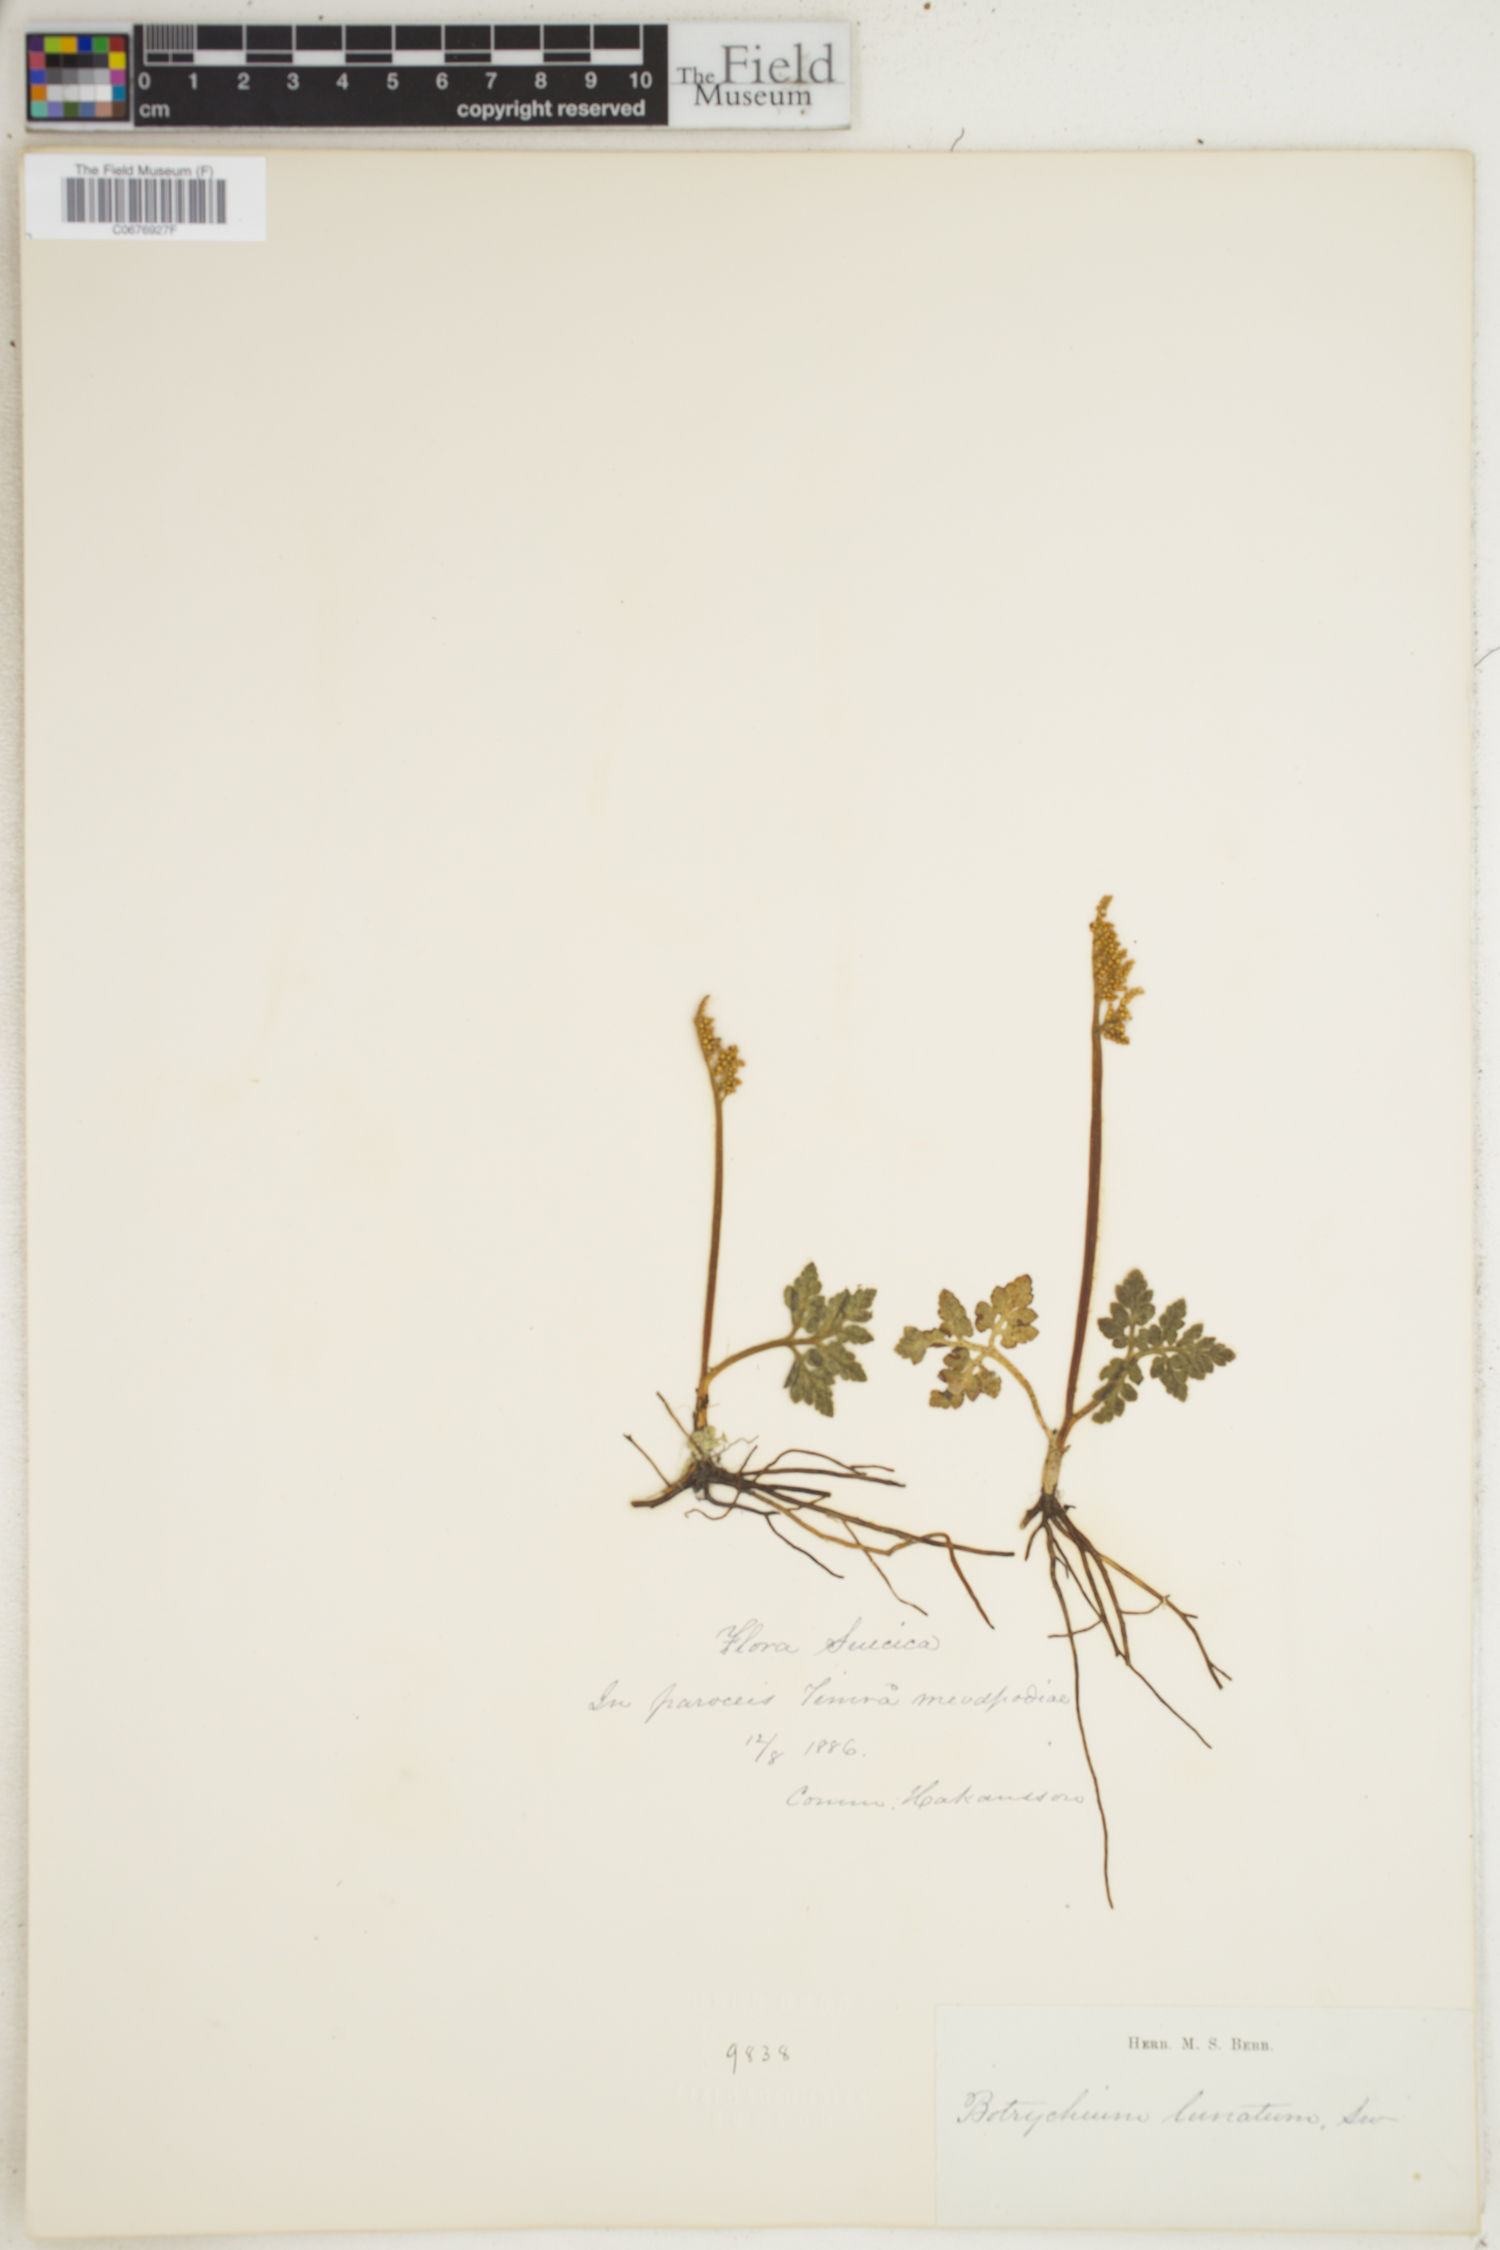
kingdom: Plantae
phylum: Tracheophyta
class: Polypodiopsida
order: Ophioglossales
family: Ophioglossaceae
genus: Botrychium
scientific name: Botrychium lunaria
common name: Moonwort
